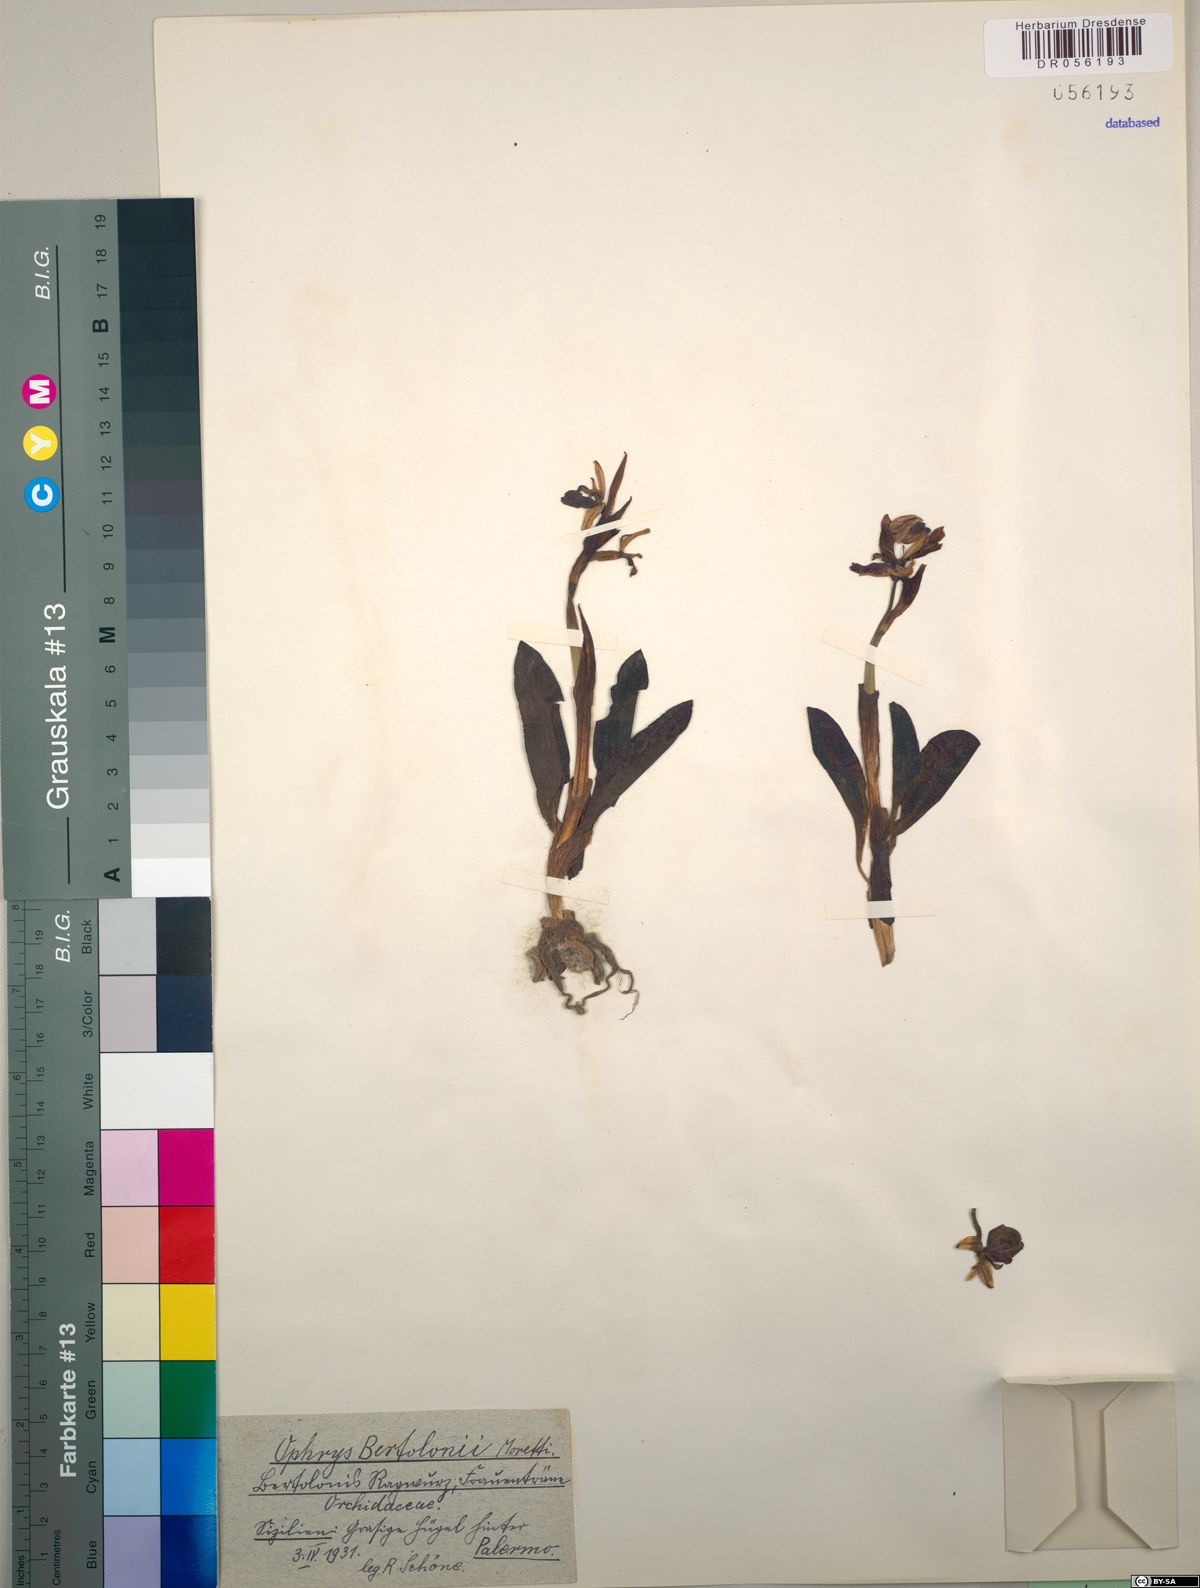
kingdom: Plantae
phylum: Tracheophyta
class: Liliopsida
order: Asparagales
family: Orchidaceae
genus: Ophrys
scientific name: Ophrys bertolonii
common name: Bertoloni's bee orchid
